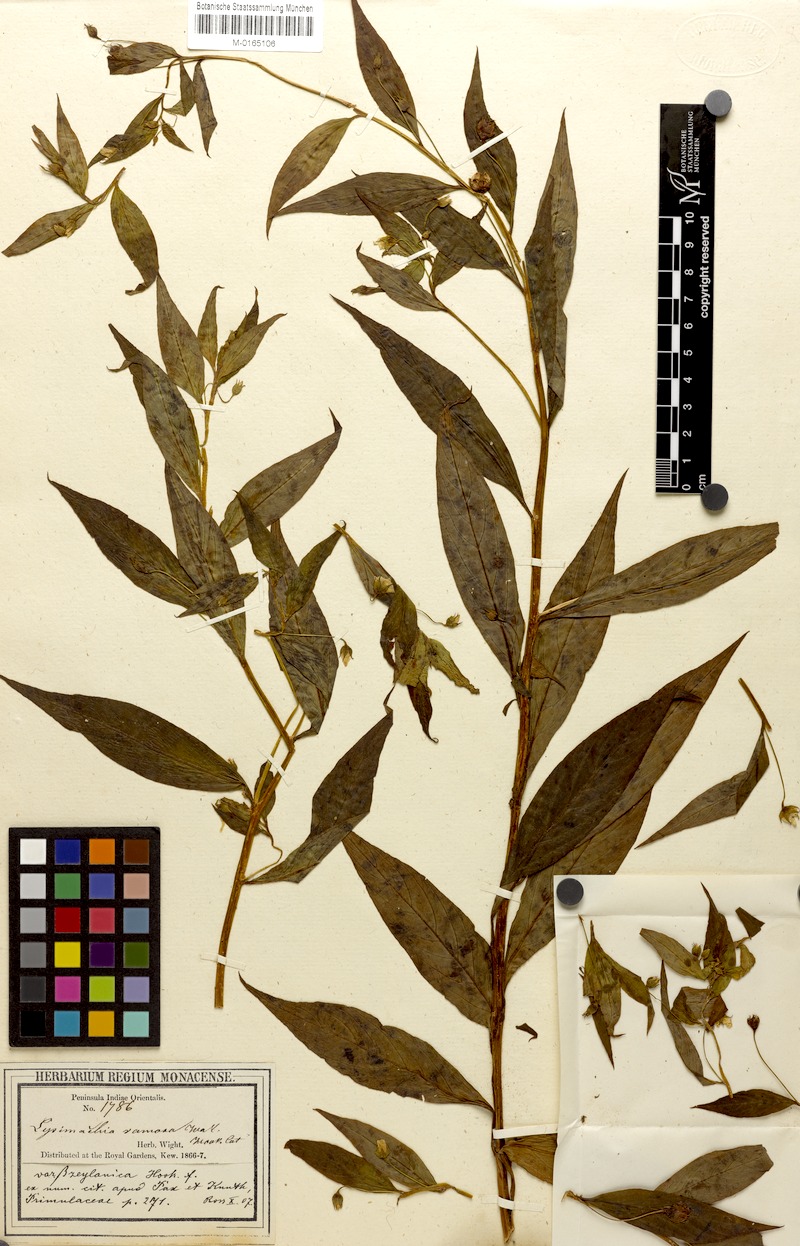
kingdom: Plantae
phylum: Tracheophyta
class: Magnoliopsida
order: Ericales
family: Primulaceae
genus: Lysimachia
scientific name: Lysimachia laxa
